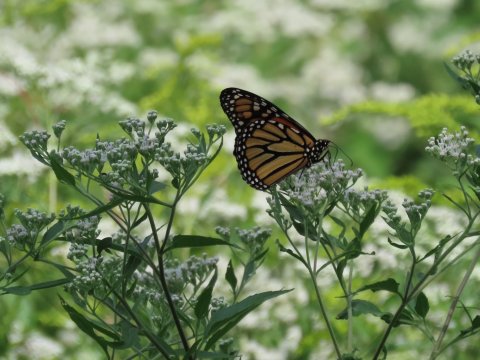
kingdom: Animalia
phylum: Arthropoda
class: Insecta
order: Lepidoptera
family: Nymphalidae
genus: Danaus
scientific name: Danaus plexippus
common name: Monarch
